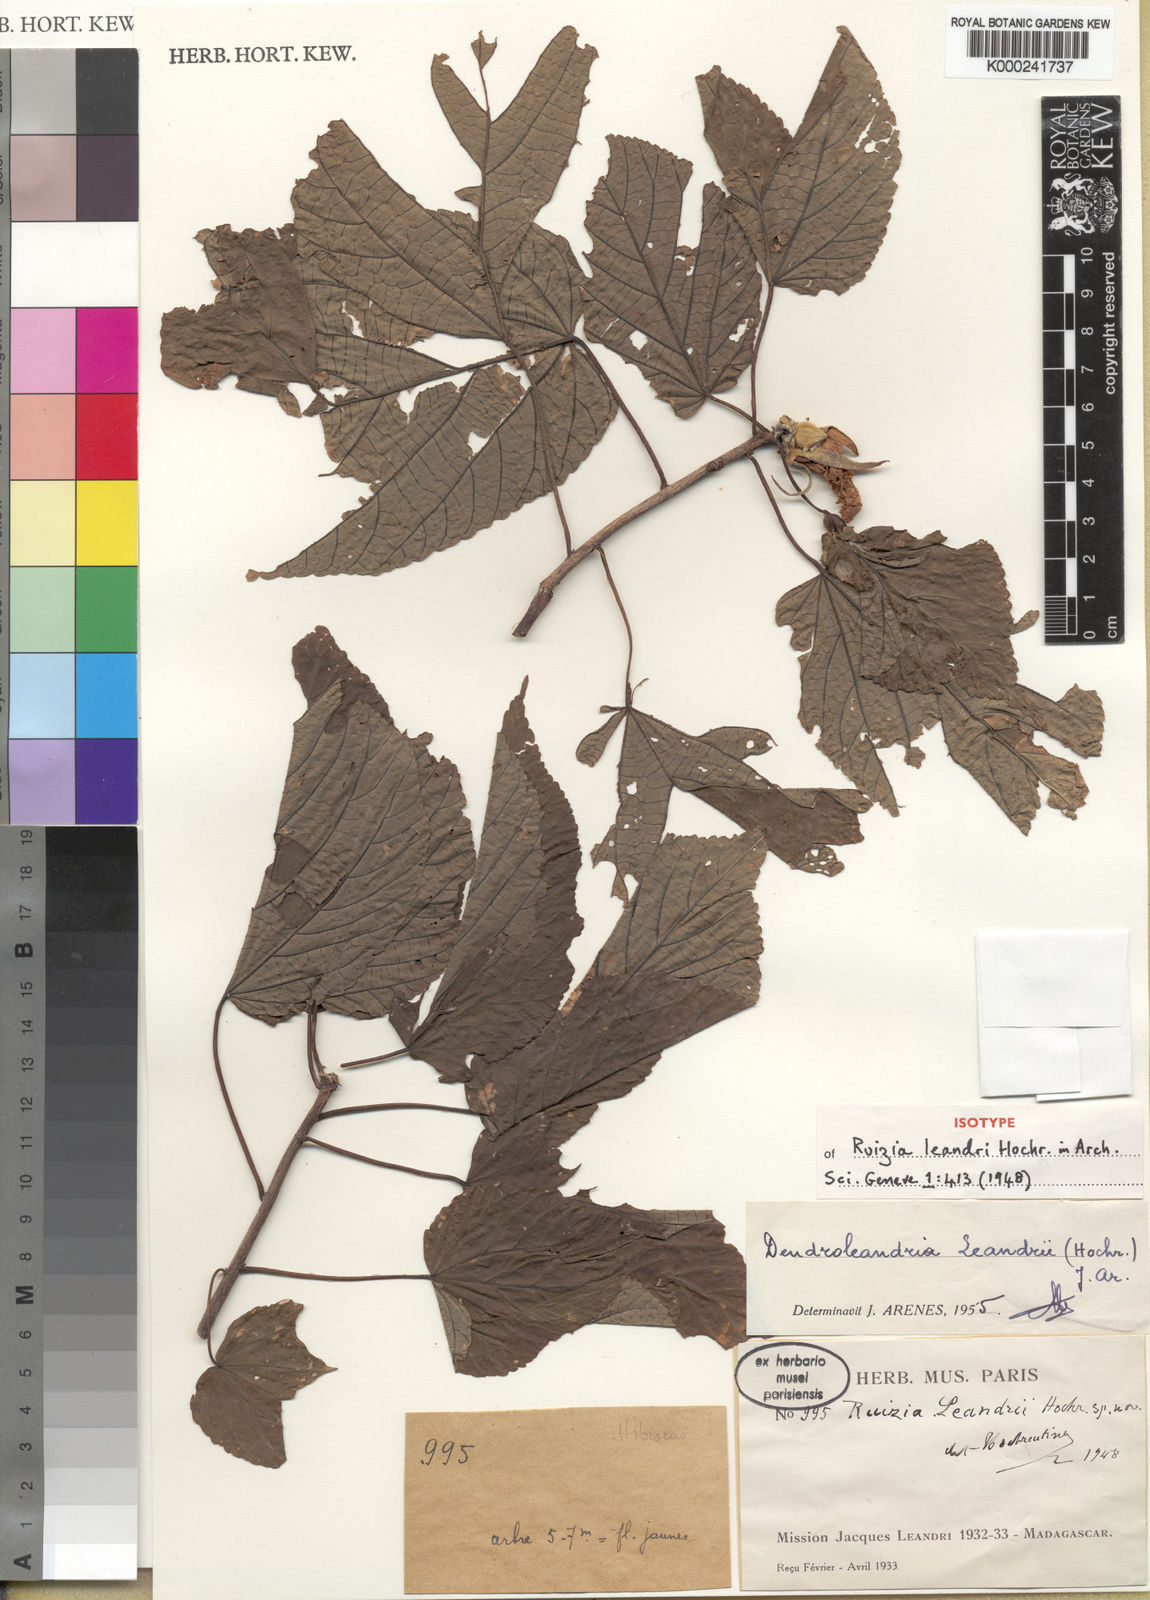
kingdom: Plantae
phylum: Tracheophyta
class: Magnoliopsida
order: Malvales
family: Malvaceae
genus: Eriolaena
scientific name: Eriolaena leandrii
